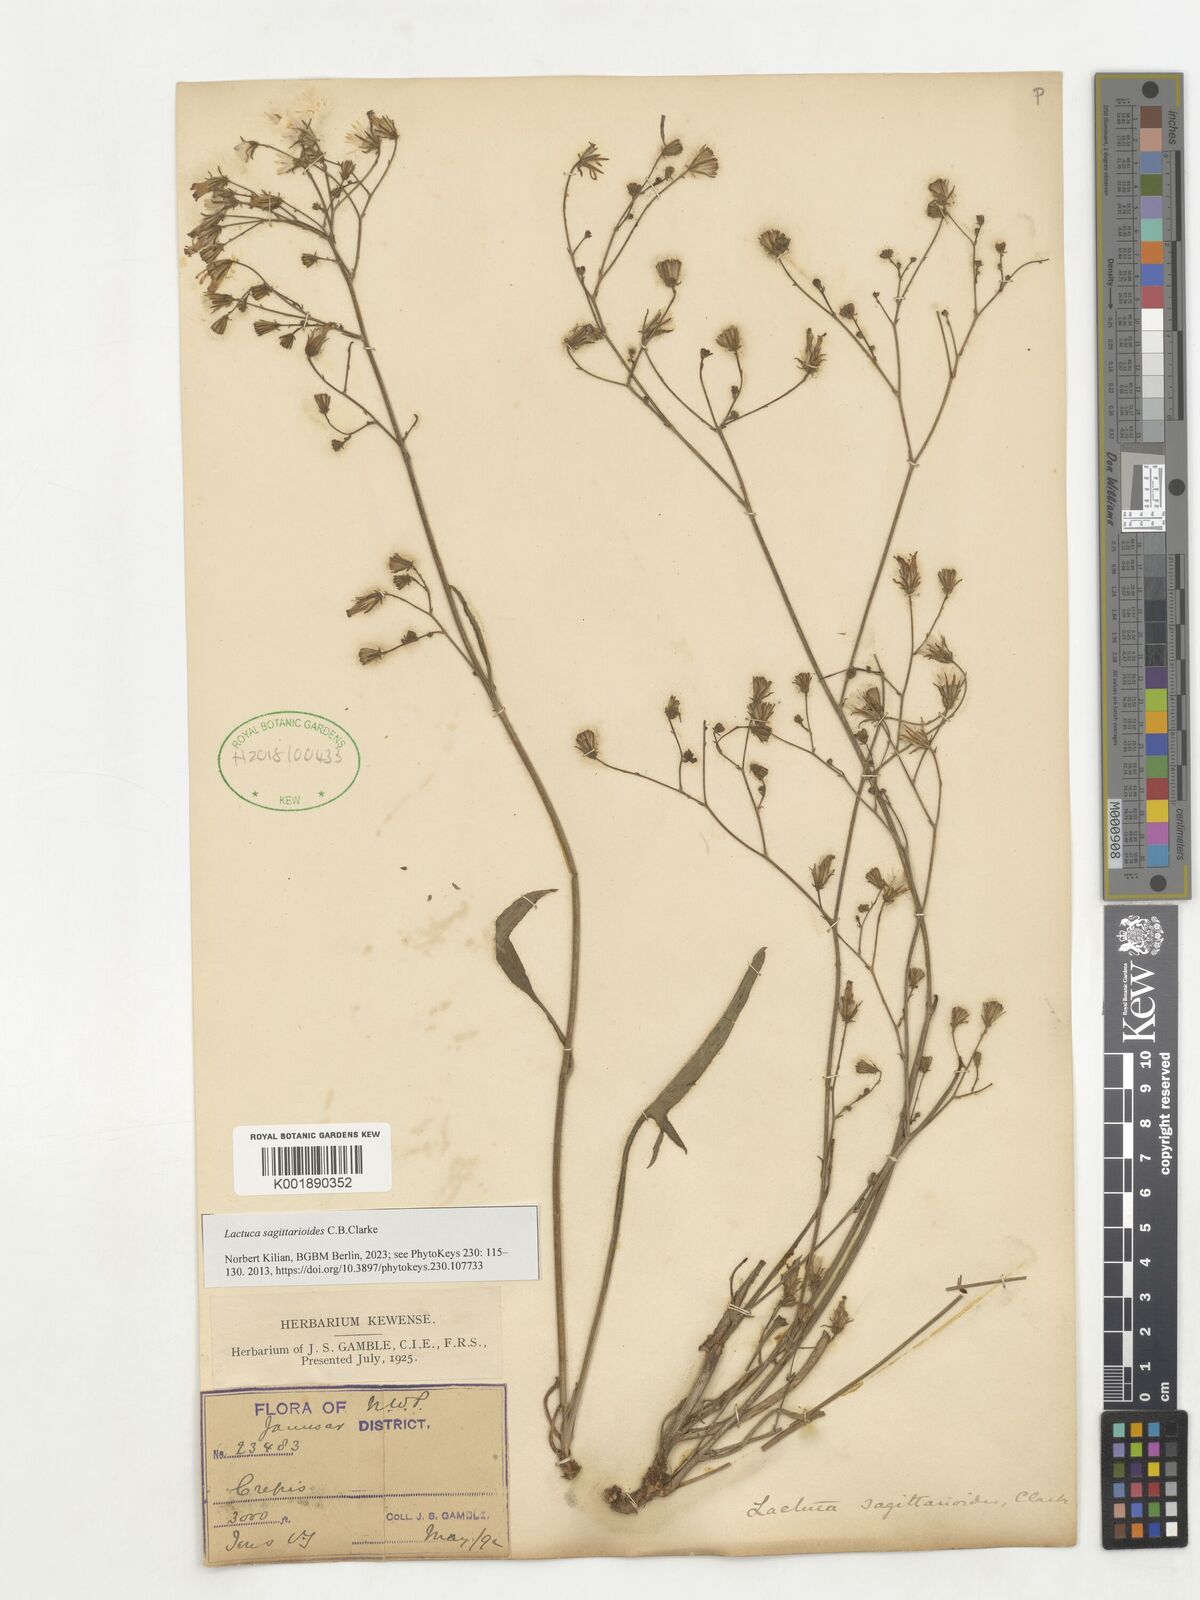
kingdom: Plantae
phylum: Tracheophyta
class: Magnoliopsida
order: Asterales
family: Asteraceae
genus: Ixeridium
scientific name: Ixeridium sagittarioides
